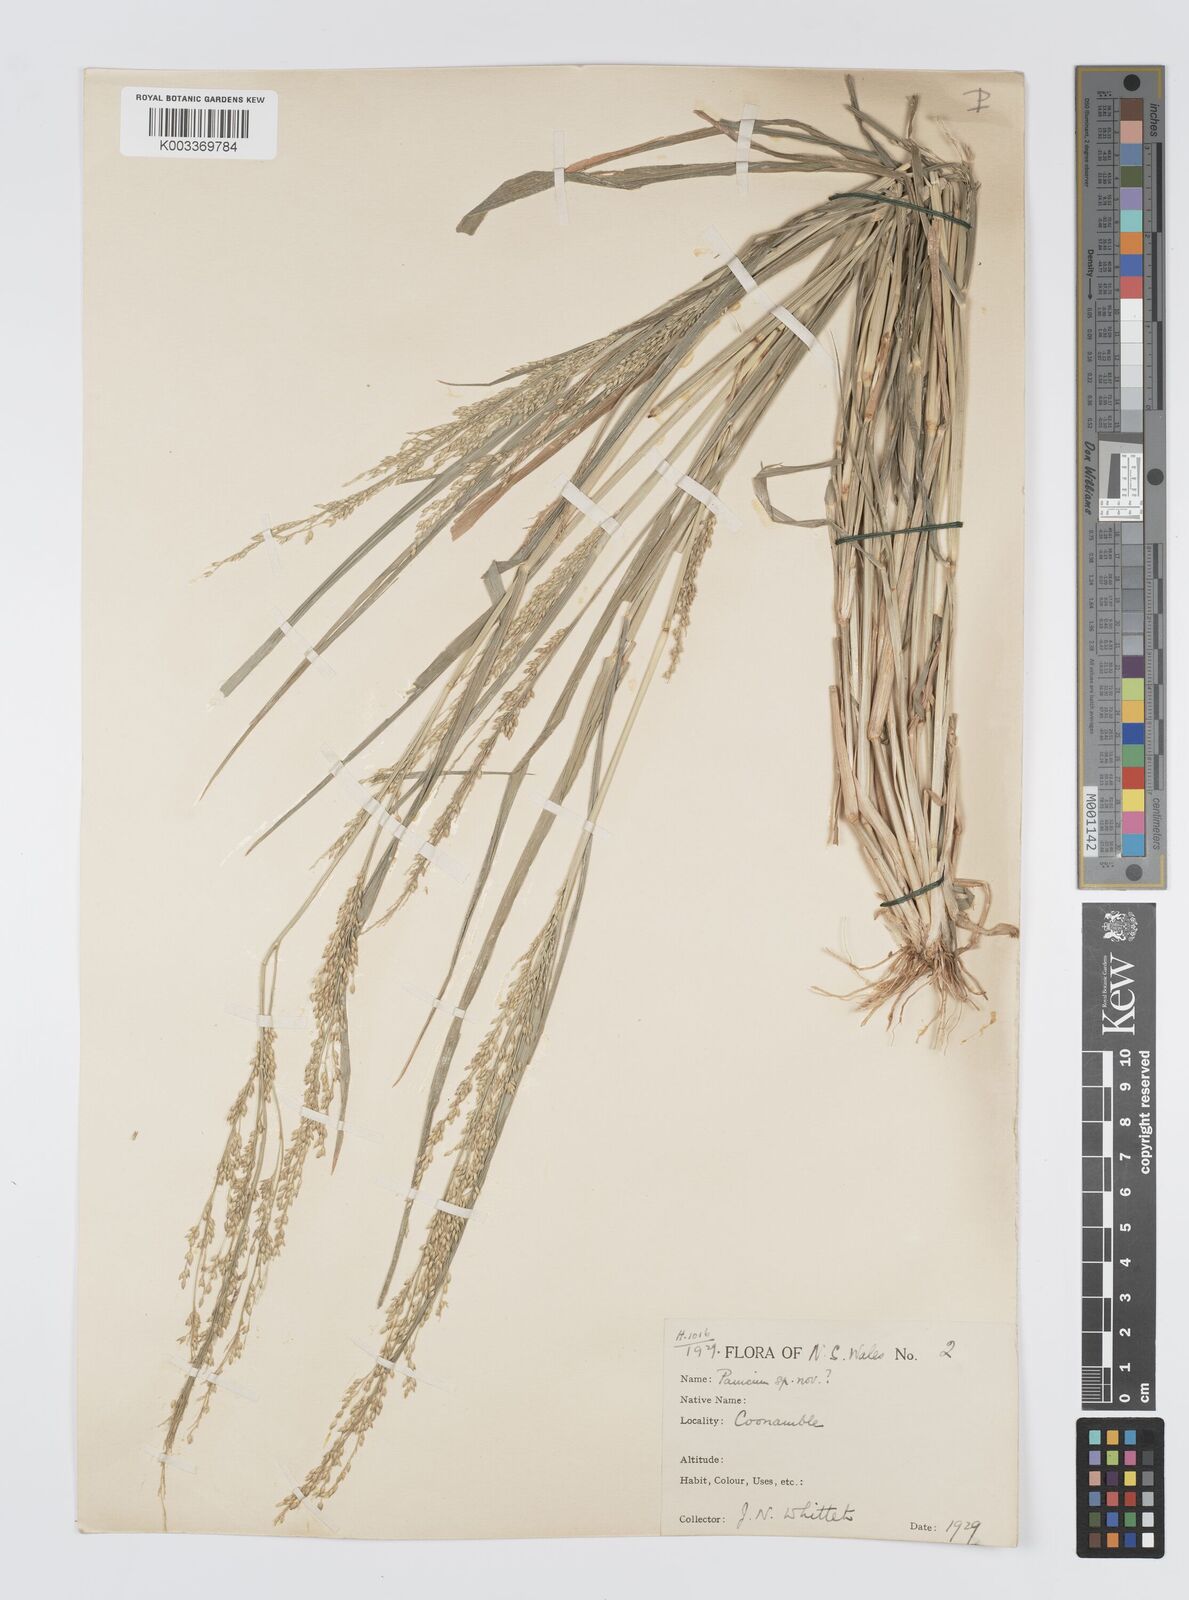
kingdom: Plantae
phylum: Tracheophyta
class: Liliopsida
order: Poales
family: Poaceae
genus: Panicum
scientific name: Panicum laevinode
